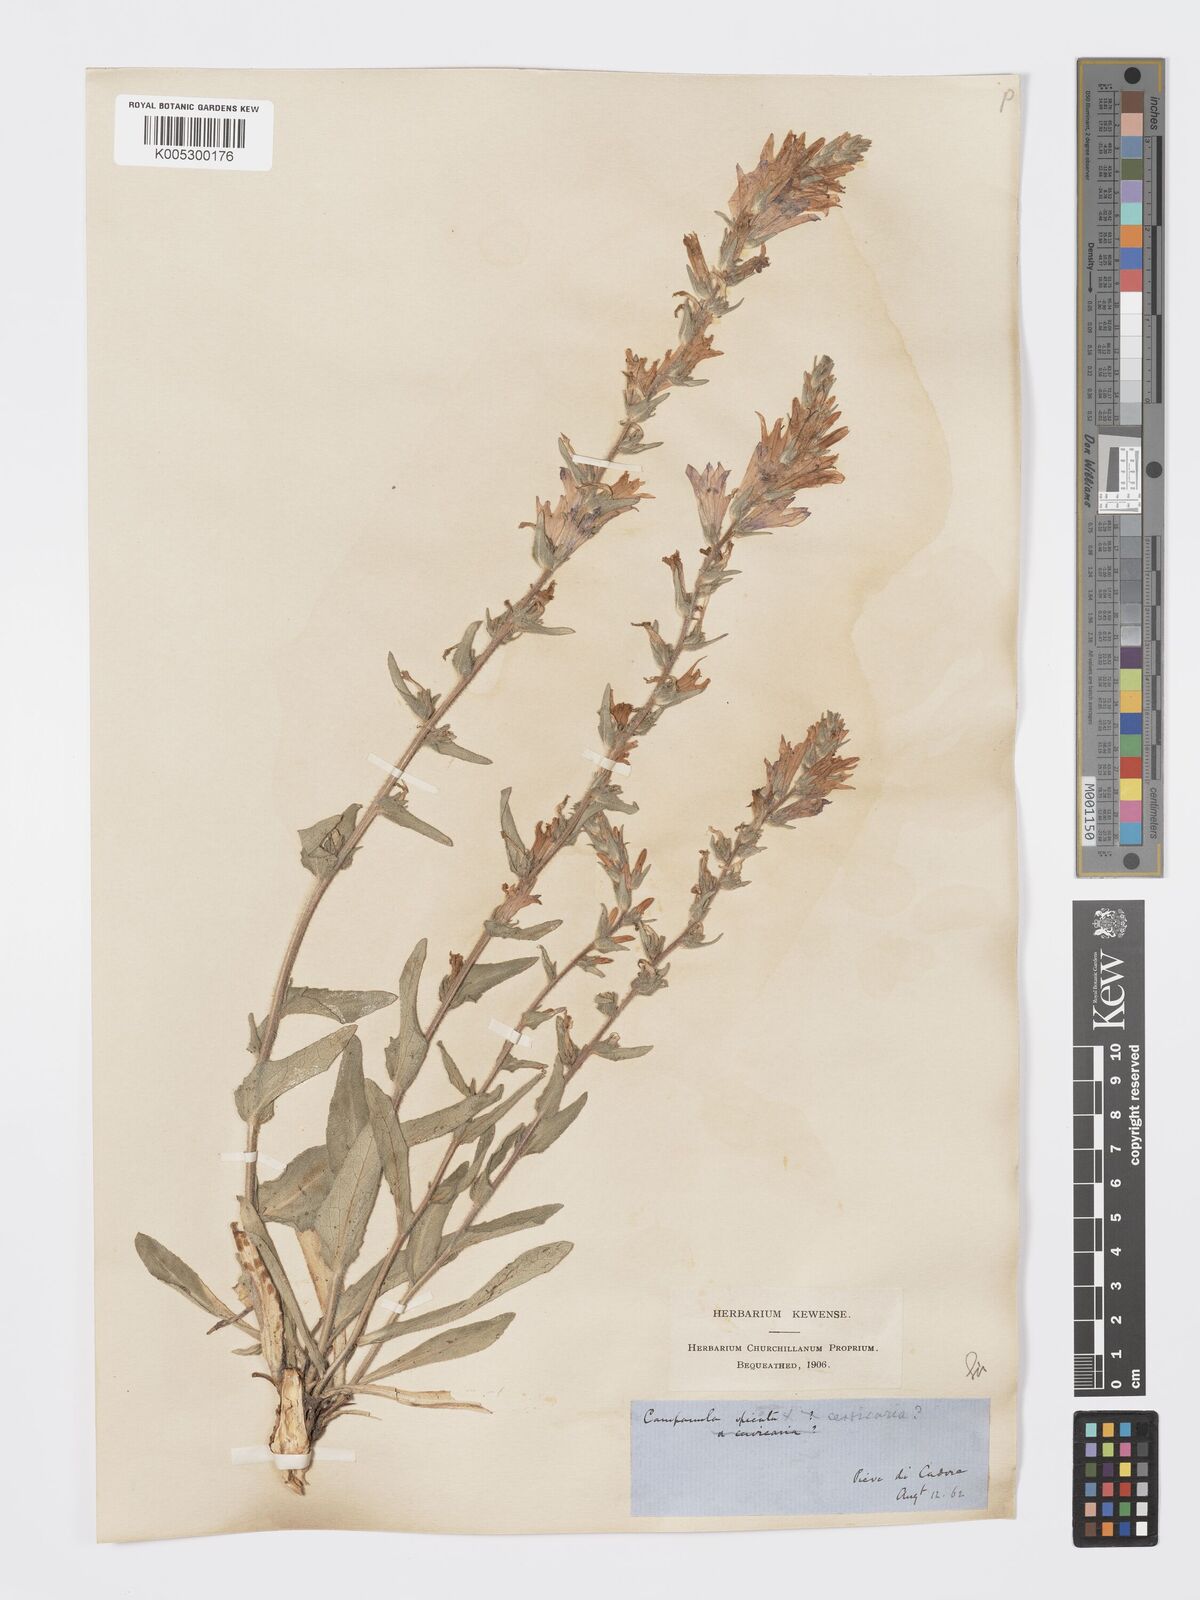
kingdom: Plantae
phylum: Tracheophyta
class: Magnoliopsida
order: Asterales
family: Campanulaceae
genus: Campanula
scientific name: Campanula spicata
